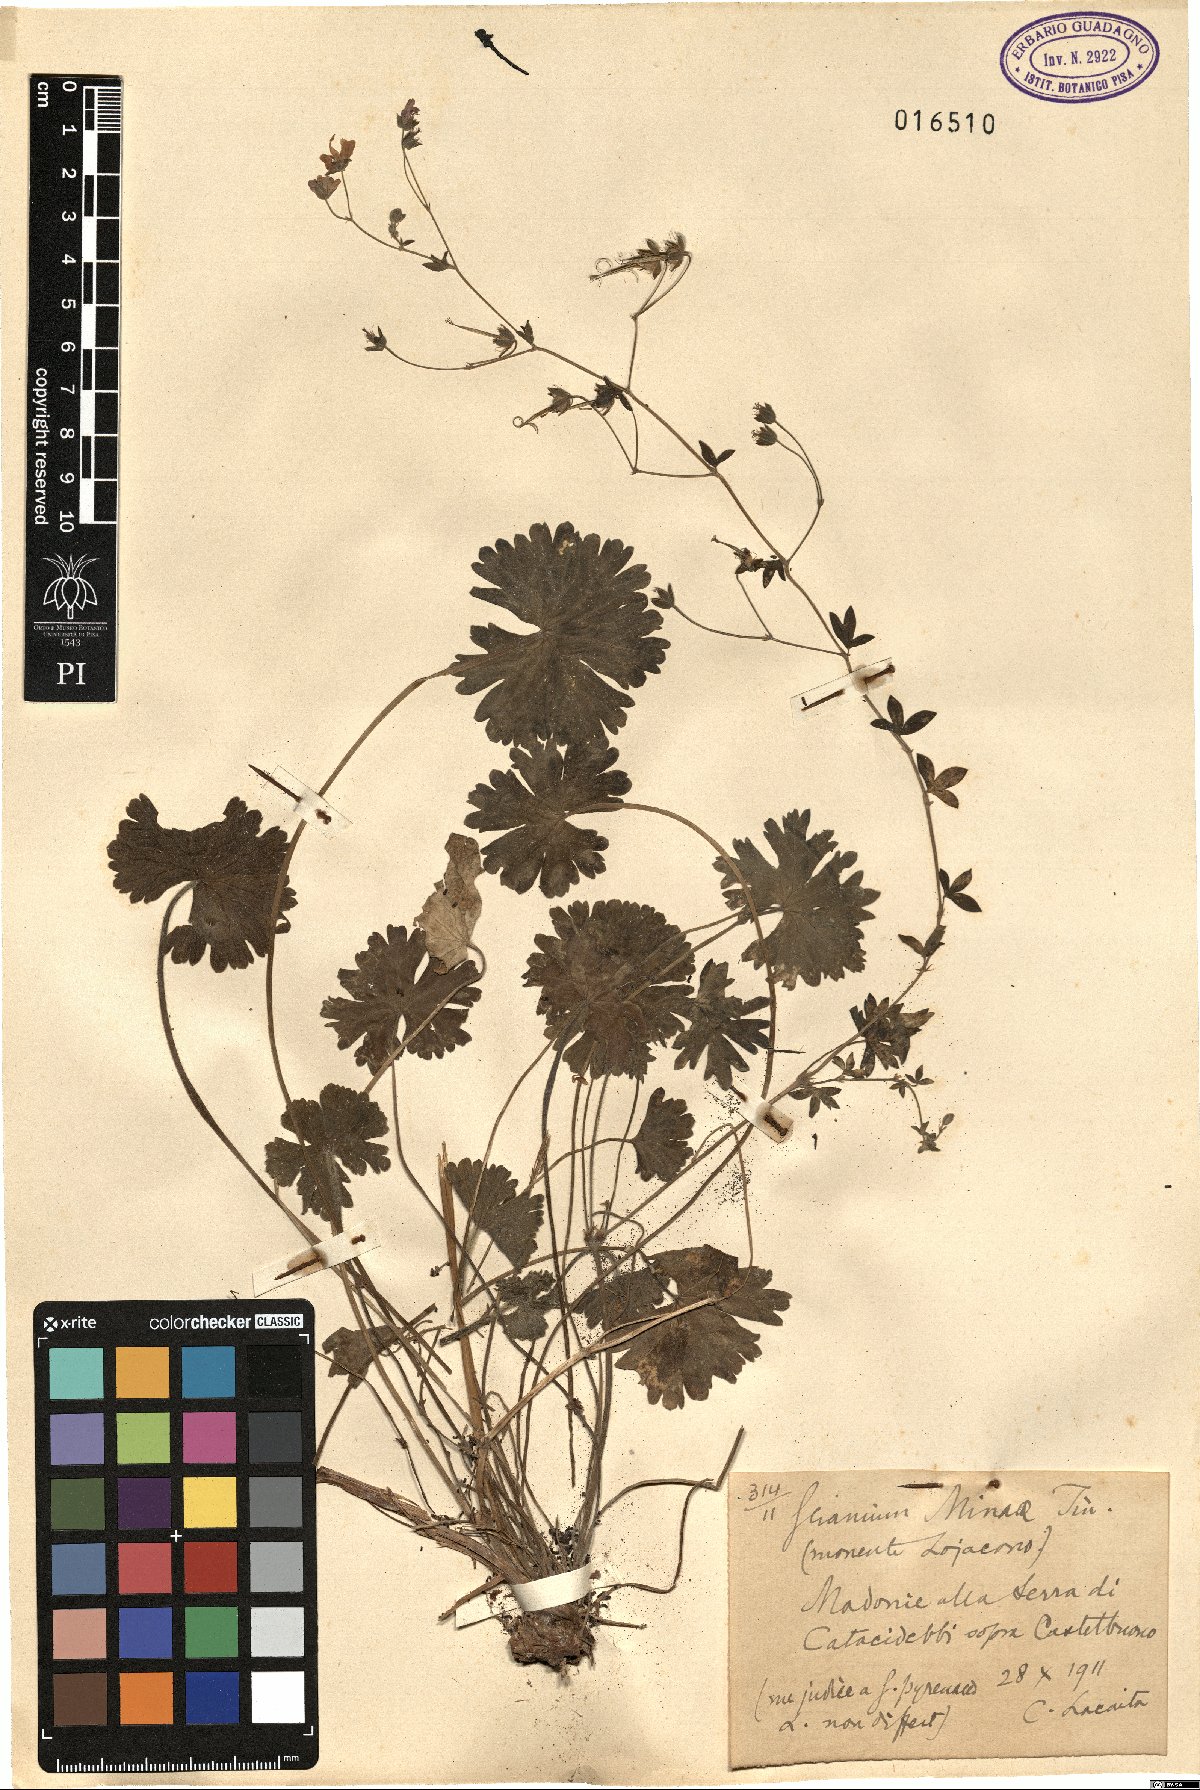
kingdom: Plantae
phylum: Tracheophyta
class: Magnoliopsida
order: Geraniales
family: Geraniaceae
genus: Geranium
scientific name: Geranium pyrenaicum
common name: Hedgerow crane's-bill
